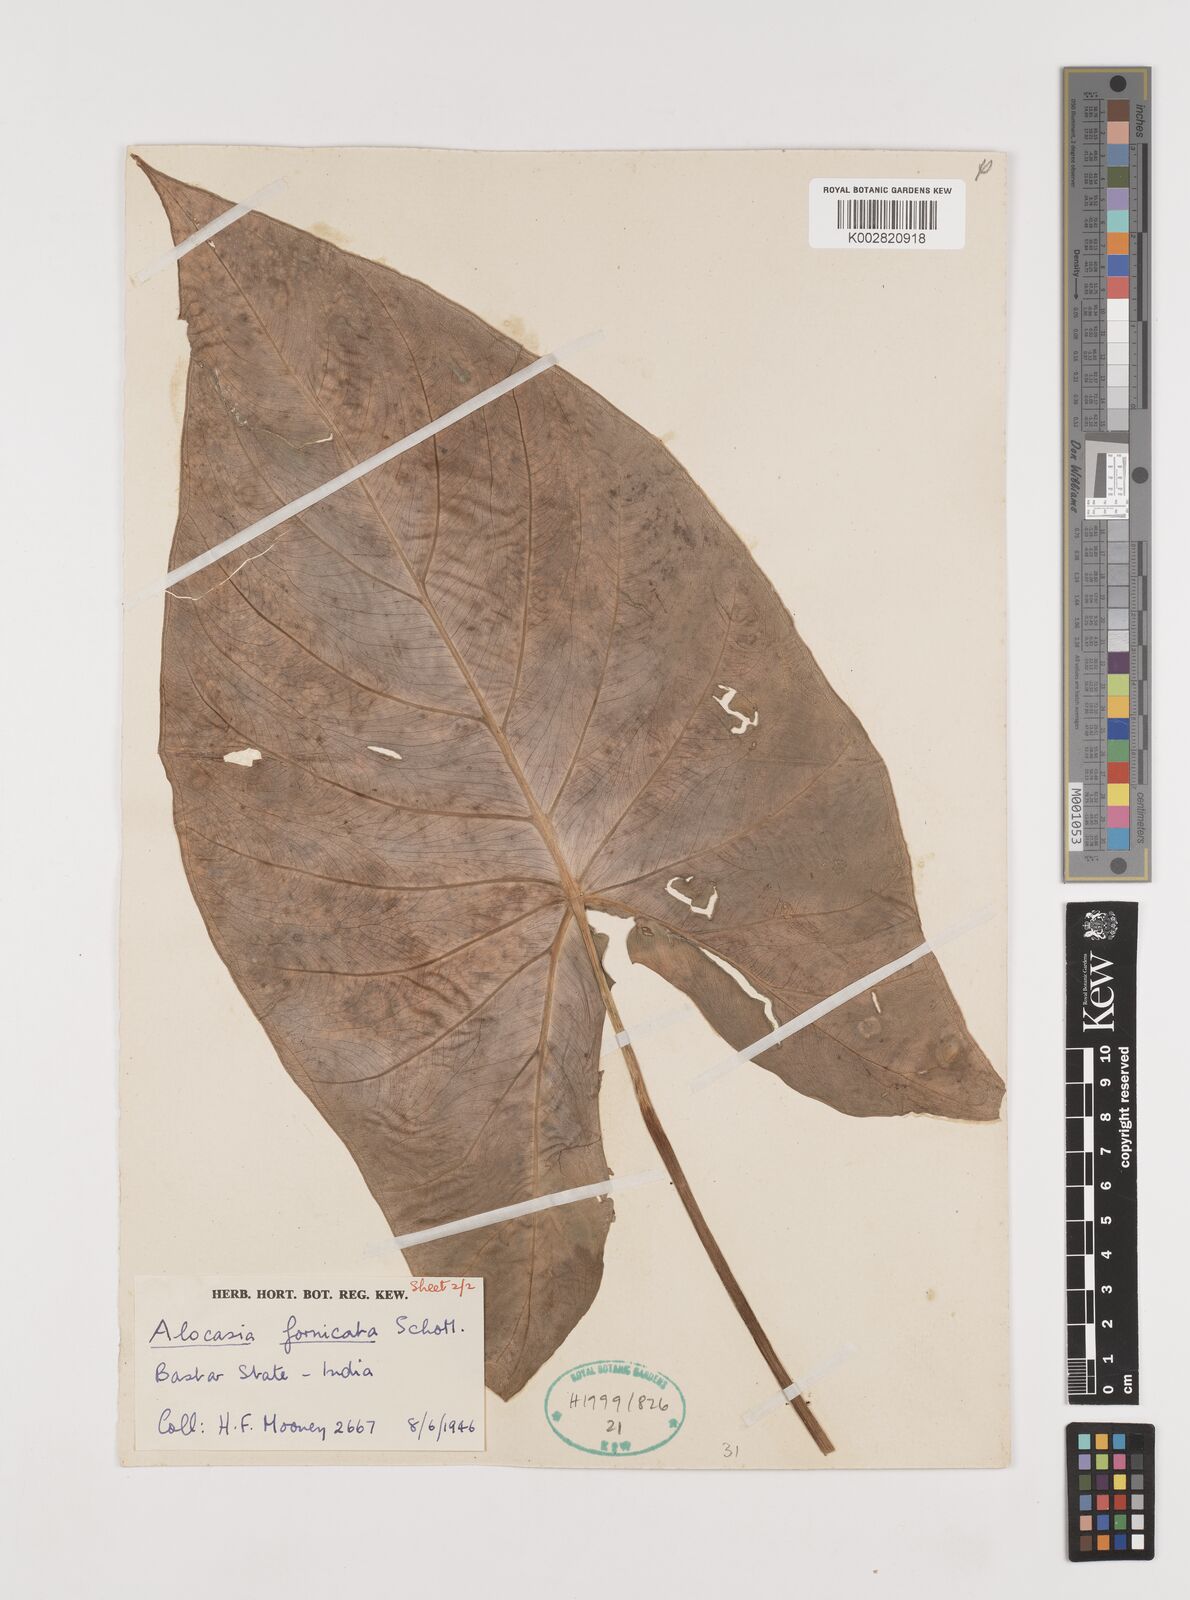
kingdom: Plantae
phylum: Tracheophyta
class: Liliopsida
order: Alismatales
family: Araceae
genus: Alocasia
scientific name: Alocasia fornicata
